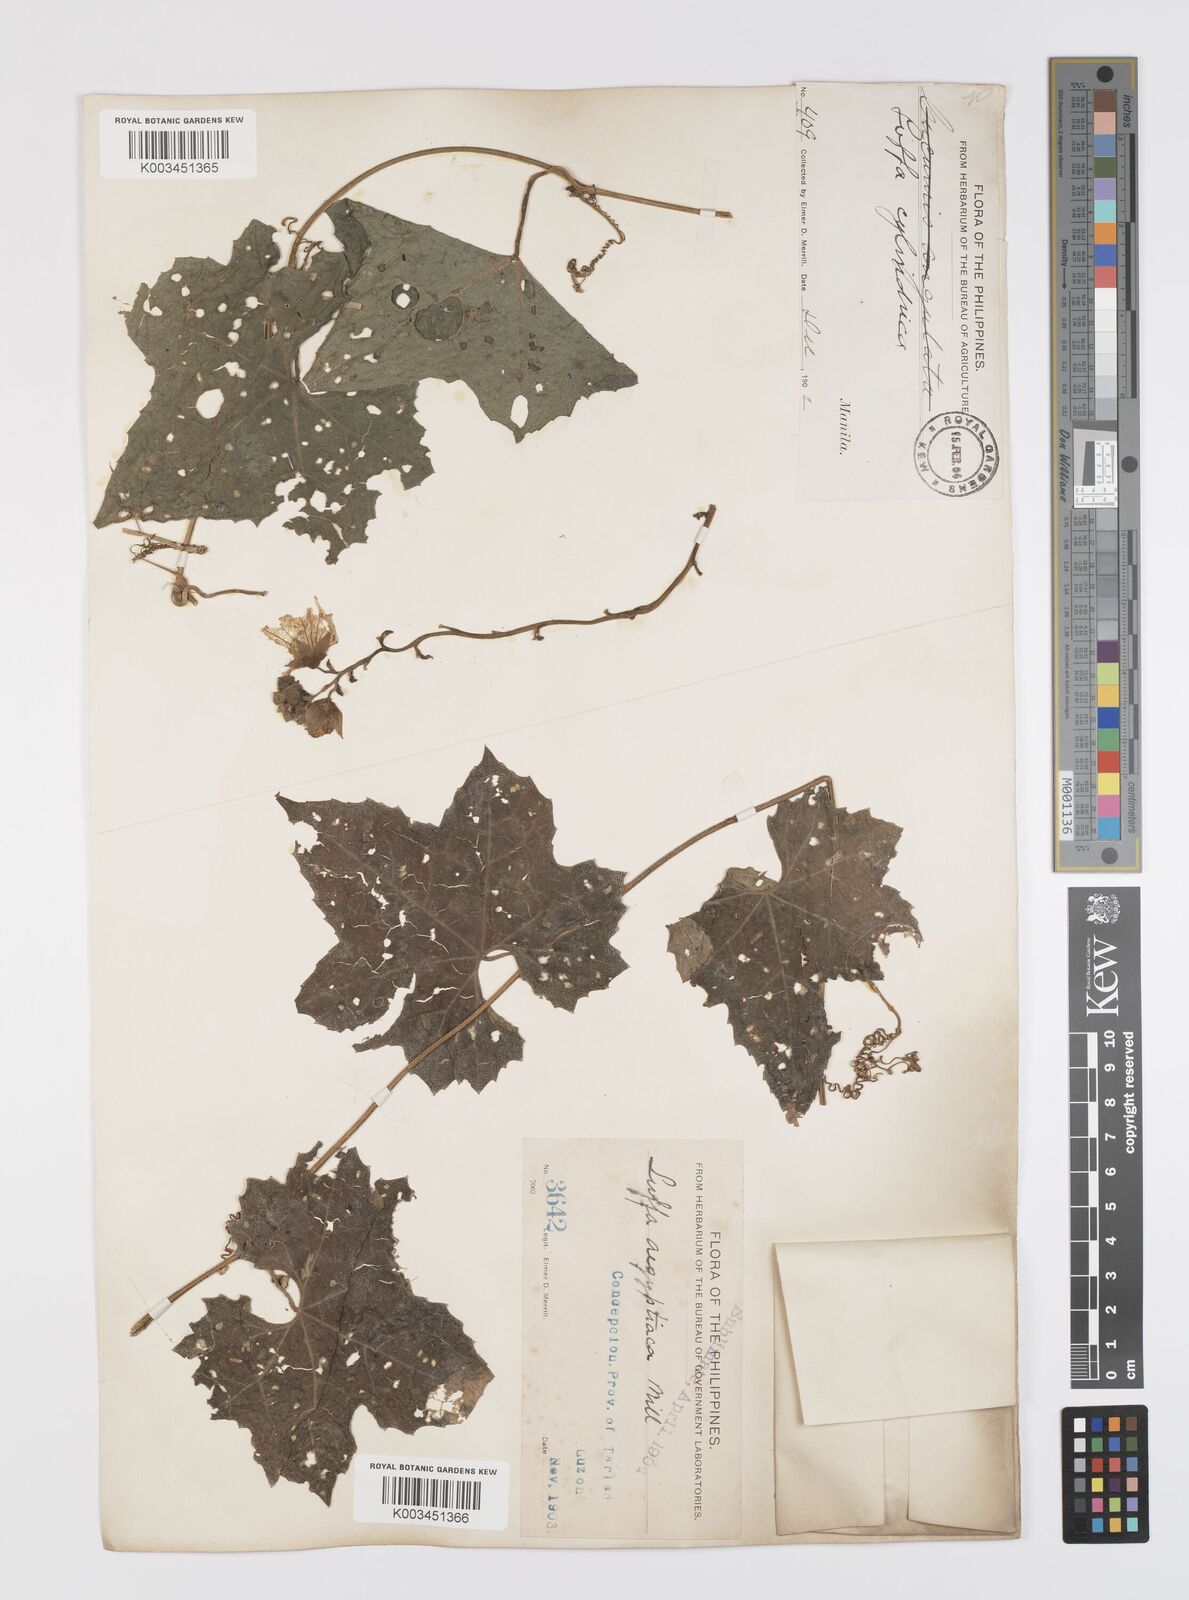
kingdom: Plantae
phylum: Tracheophyta
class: Magnoliopsida
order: Cucurbitales
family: Cucurbitaceae
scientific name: Cucurbitaceae
